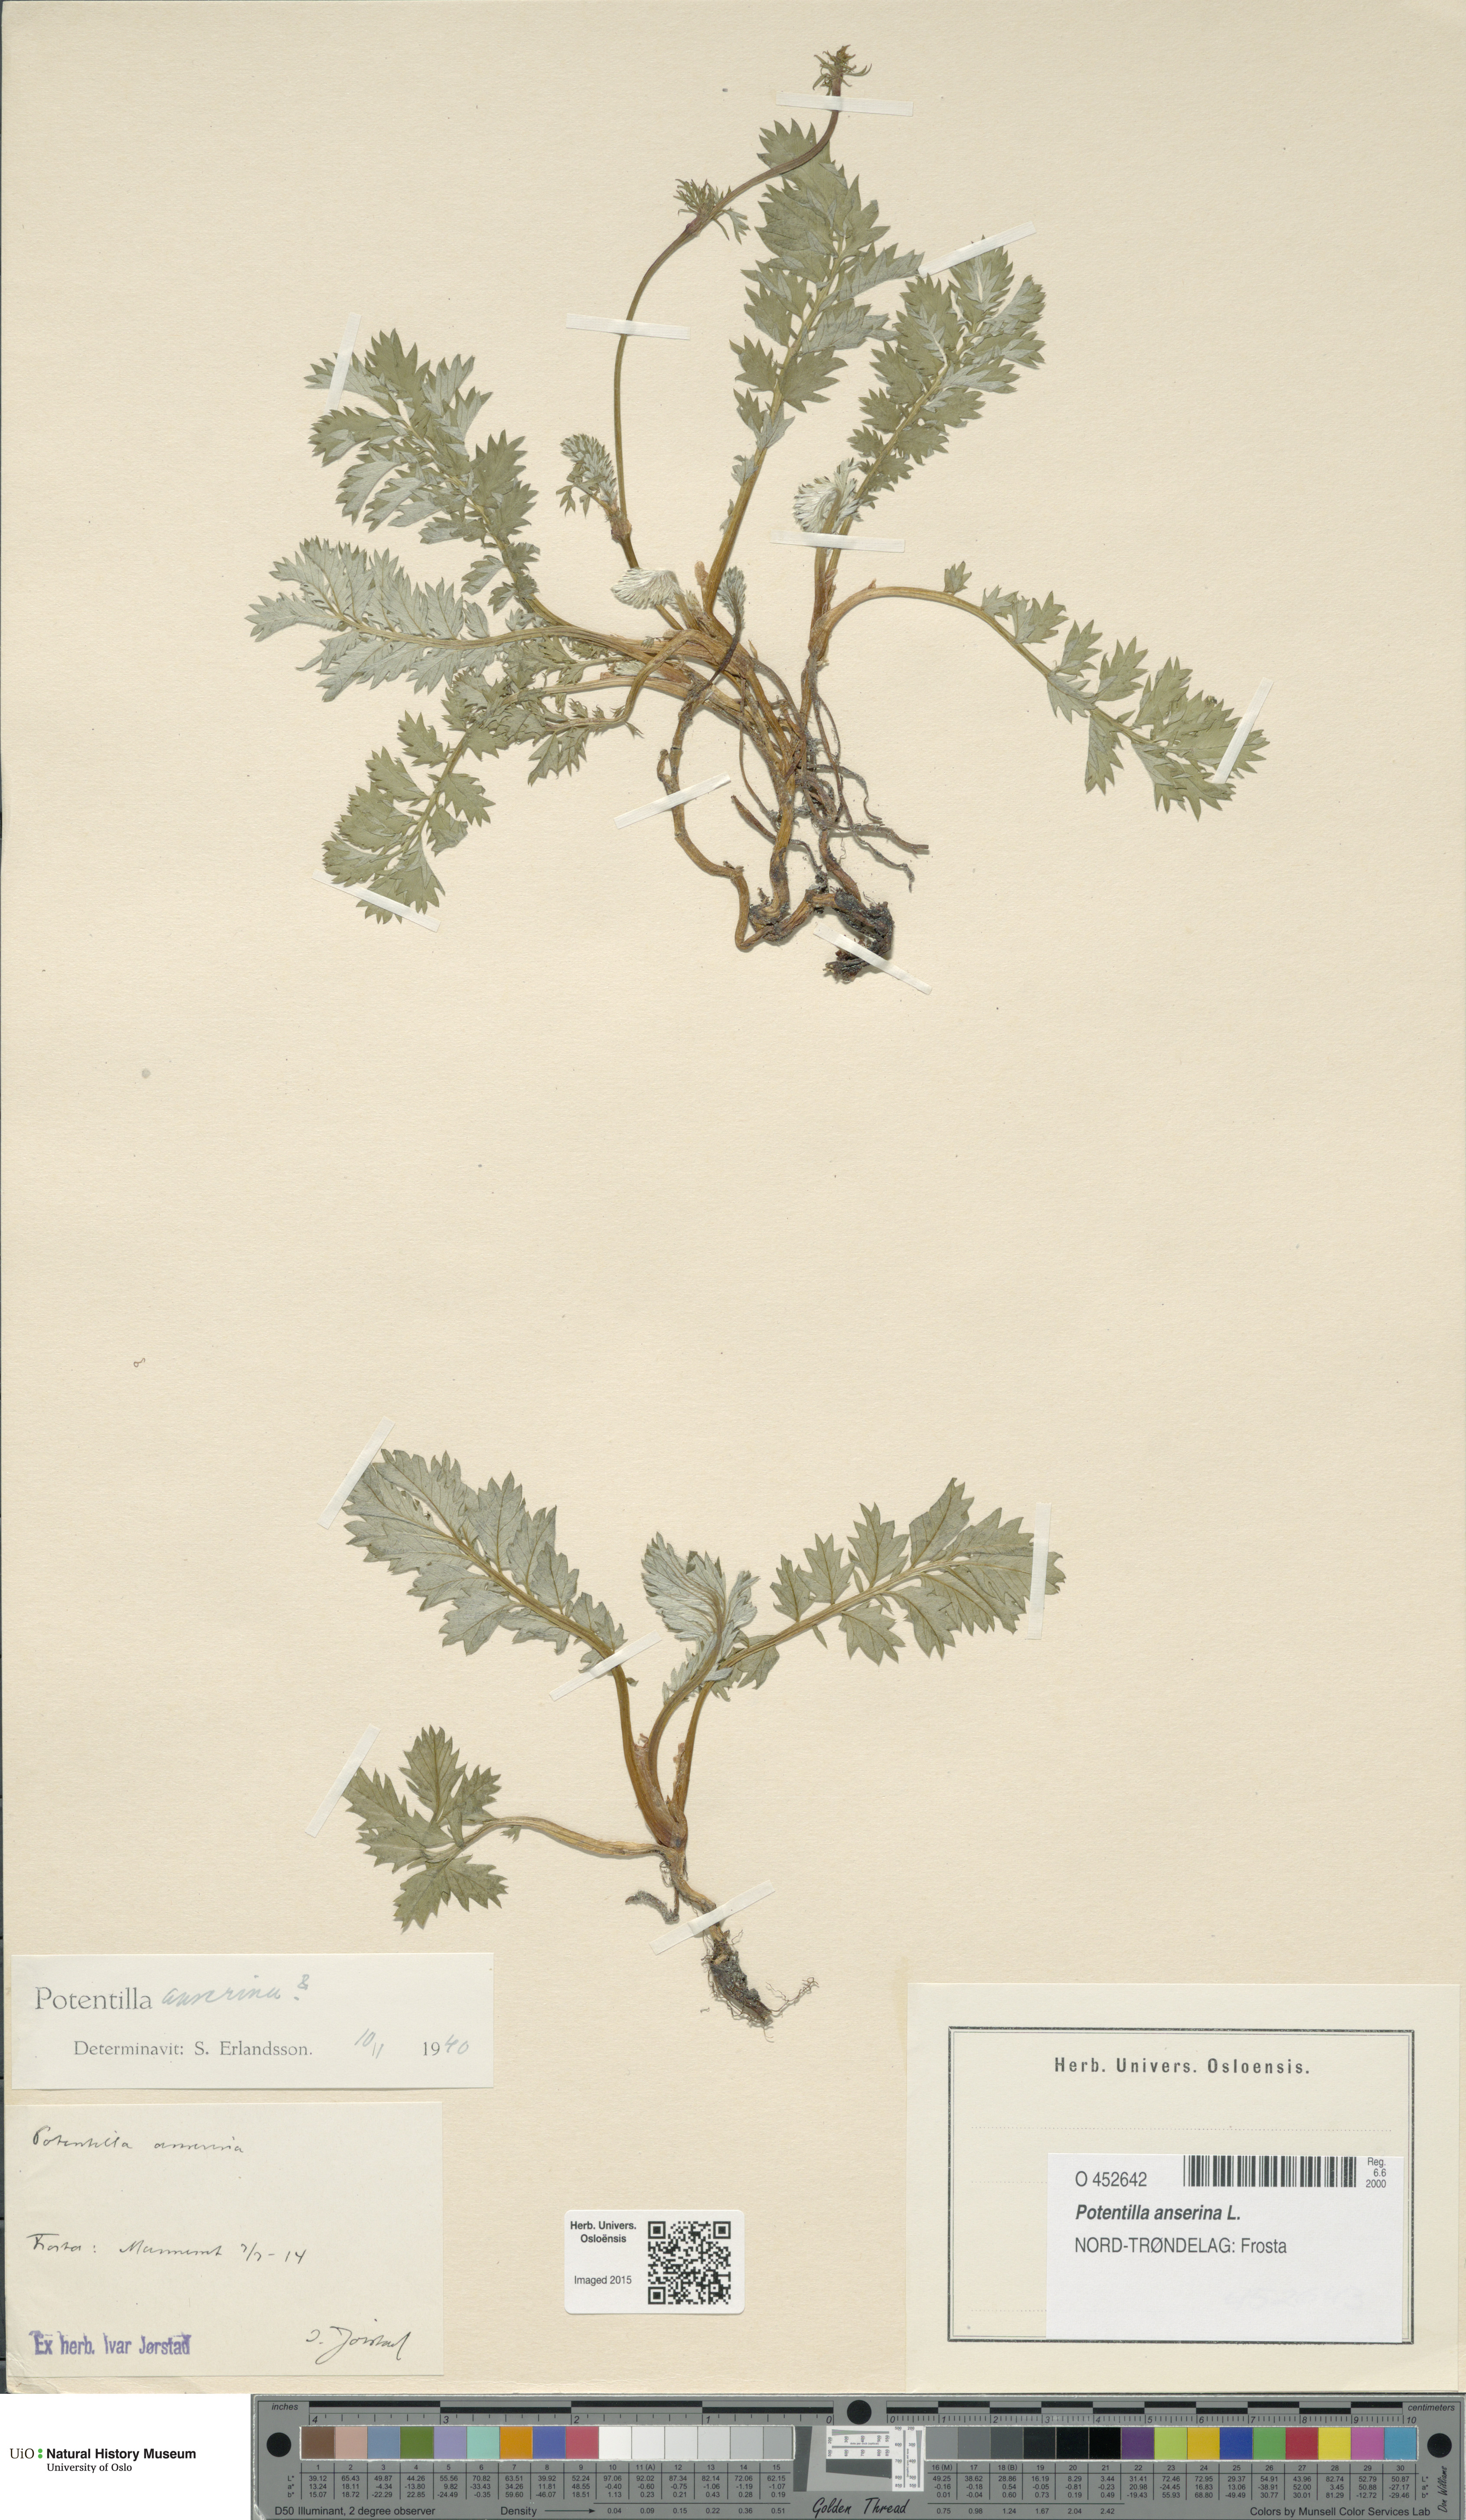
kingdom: Plantae
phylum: Tracheophyta
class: Magnoliopsida
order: Rosales
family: Rosaceae
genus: Argentina
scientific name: Argentina anserina
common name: Common silverweed
